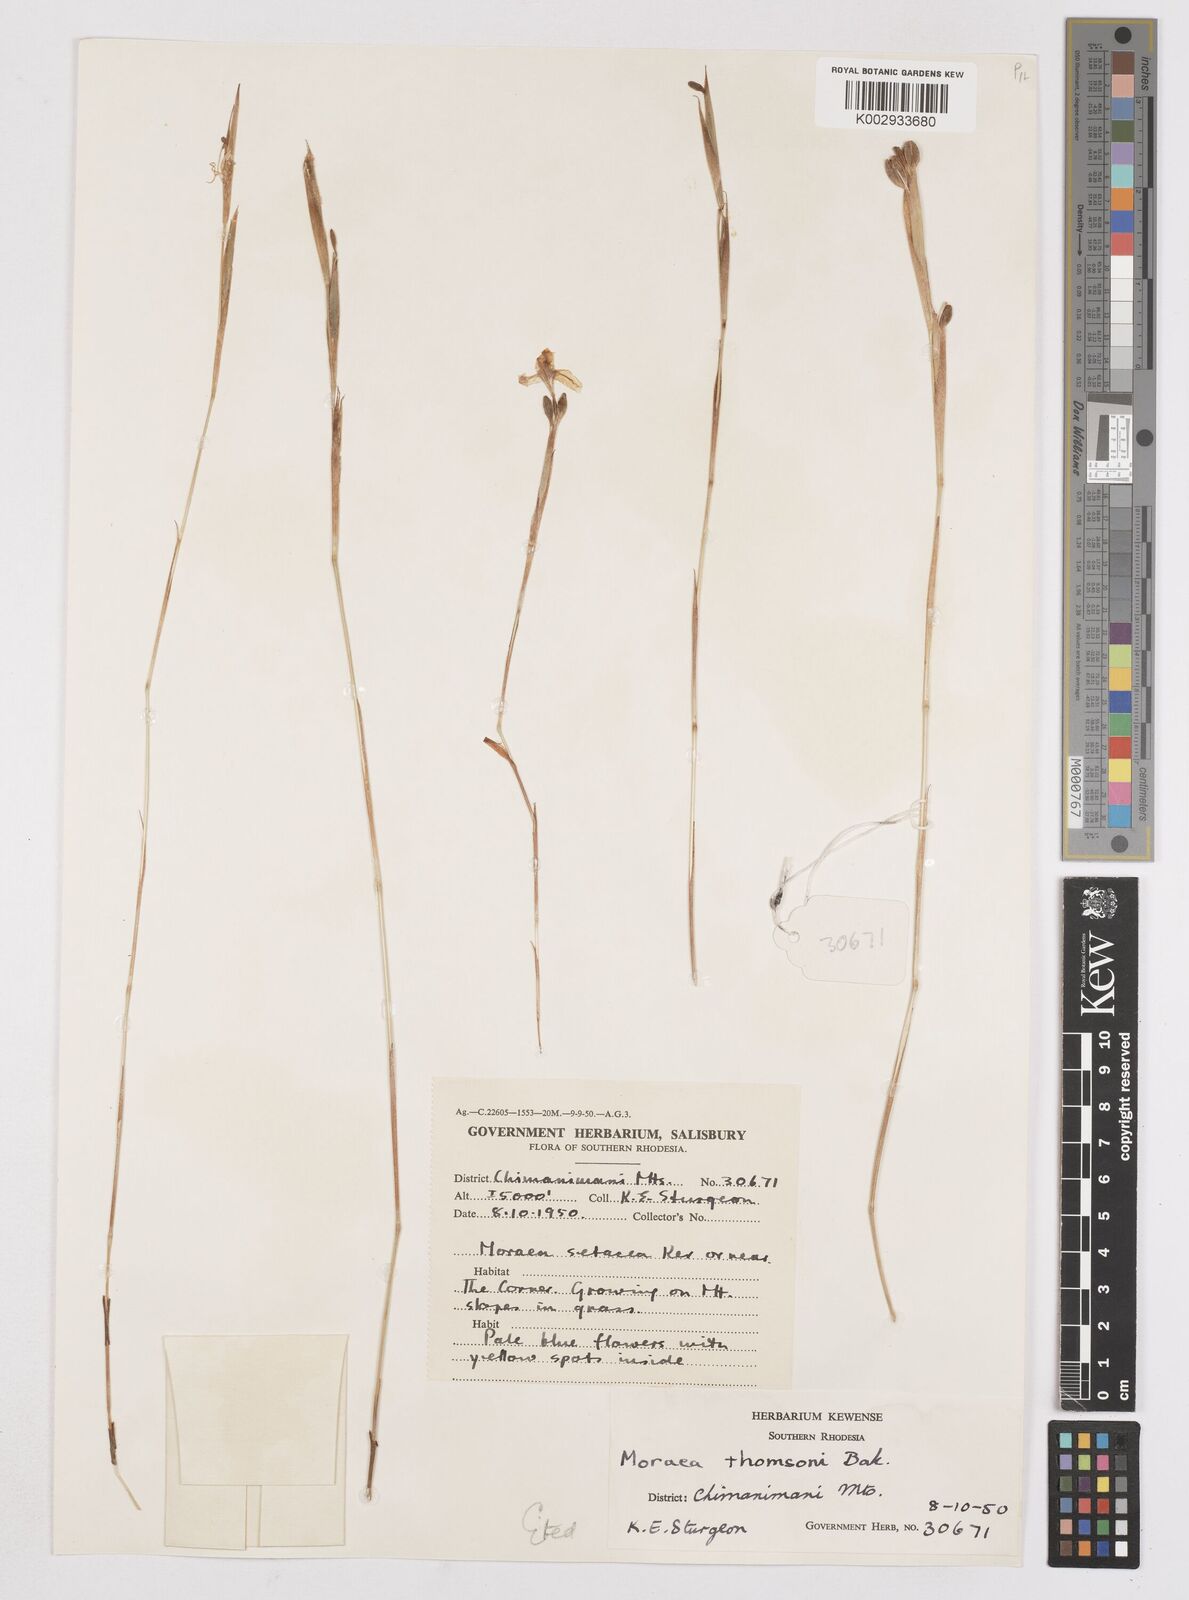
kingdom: Plantae
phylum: Tracheophyta
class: Liliopsida
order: Asparagales
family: Iridaceae
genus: Moraea
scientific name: Moraea thomsonii
